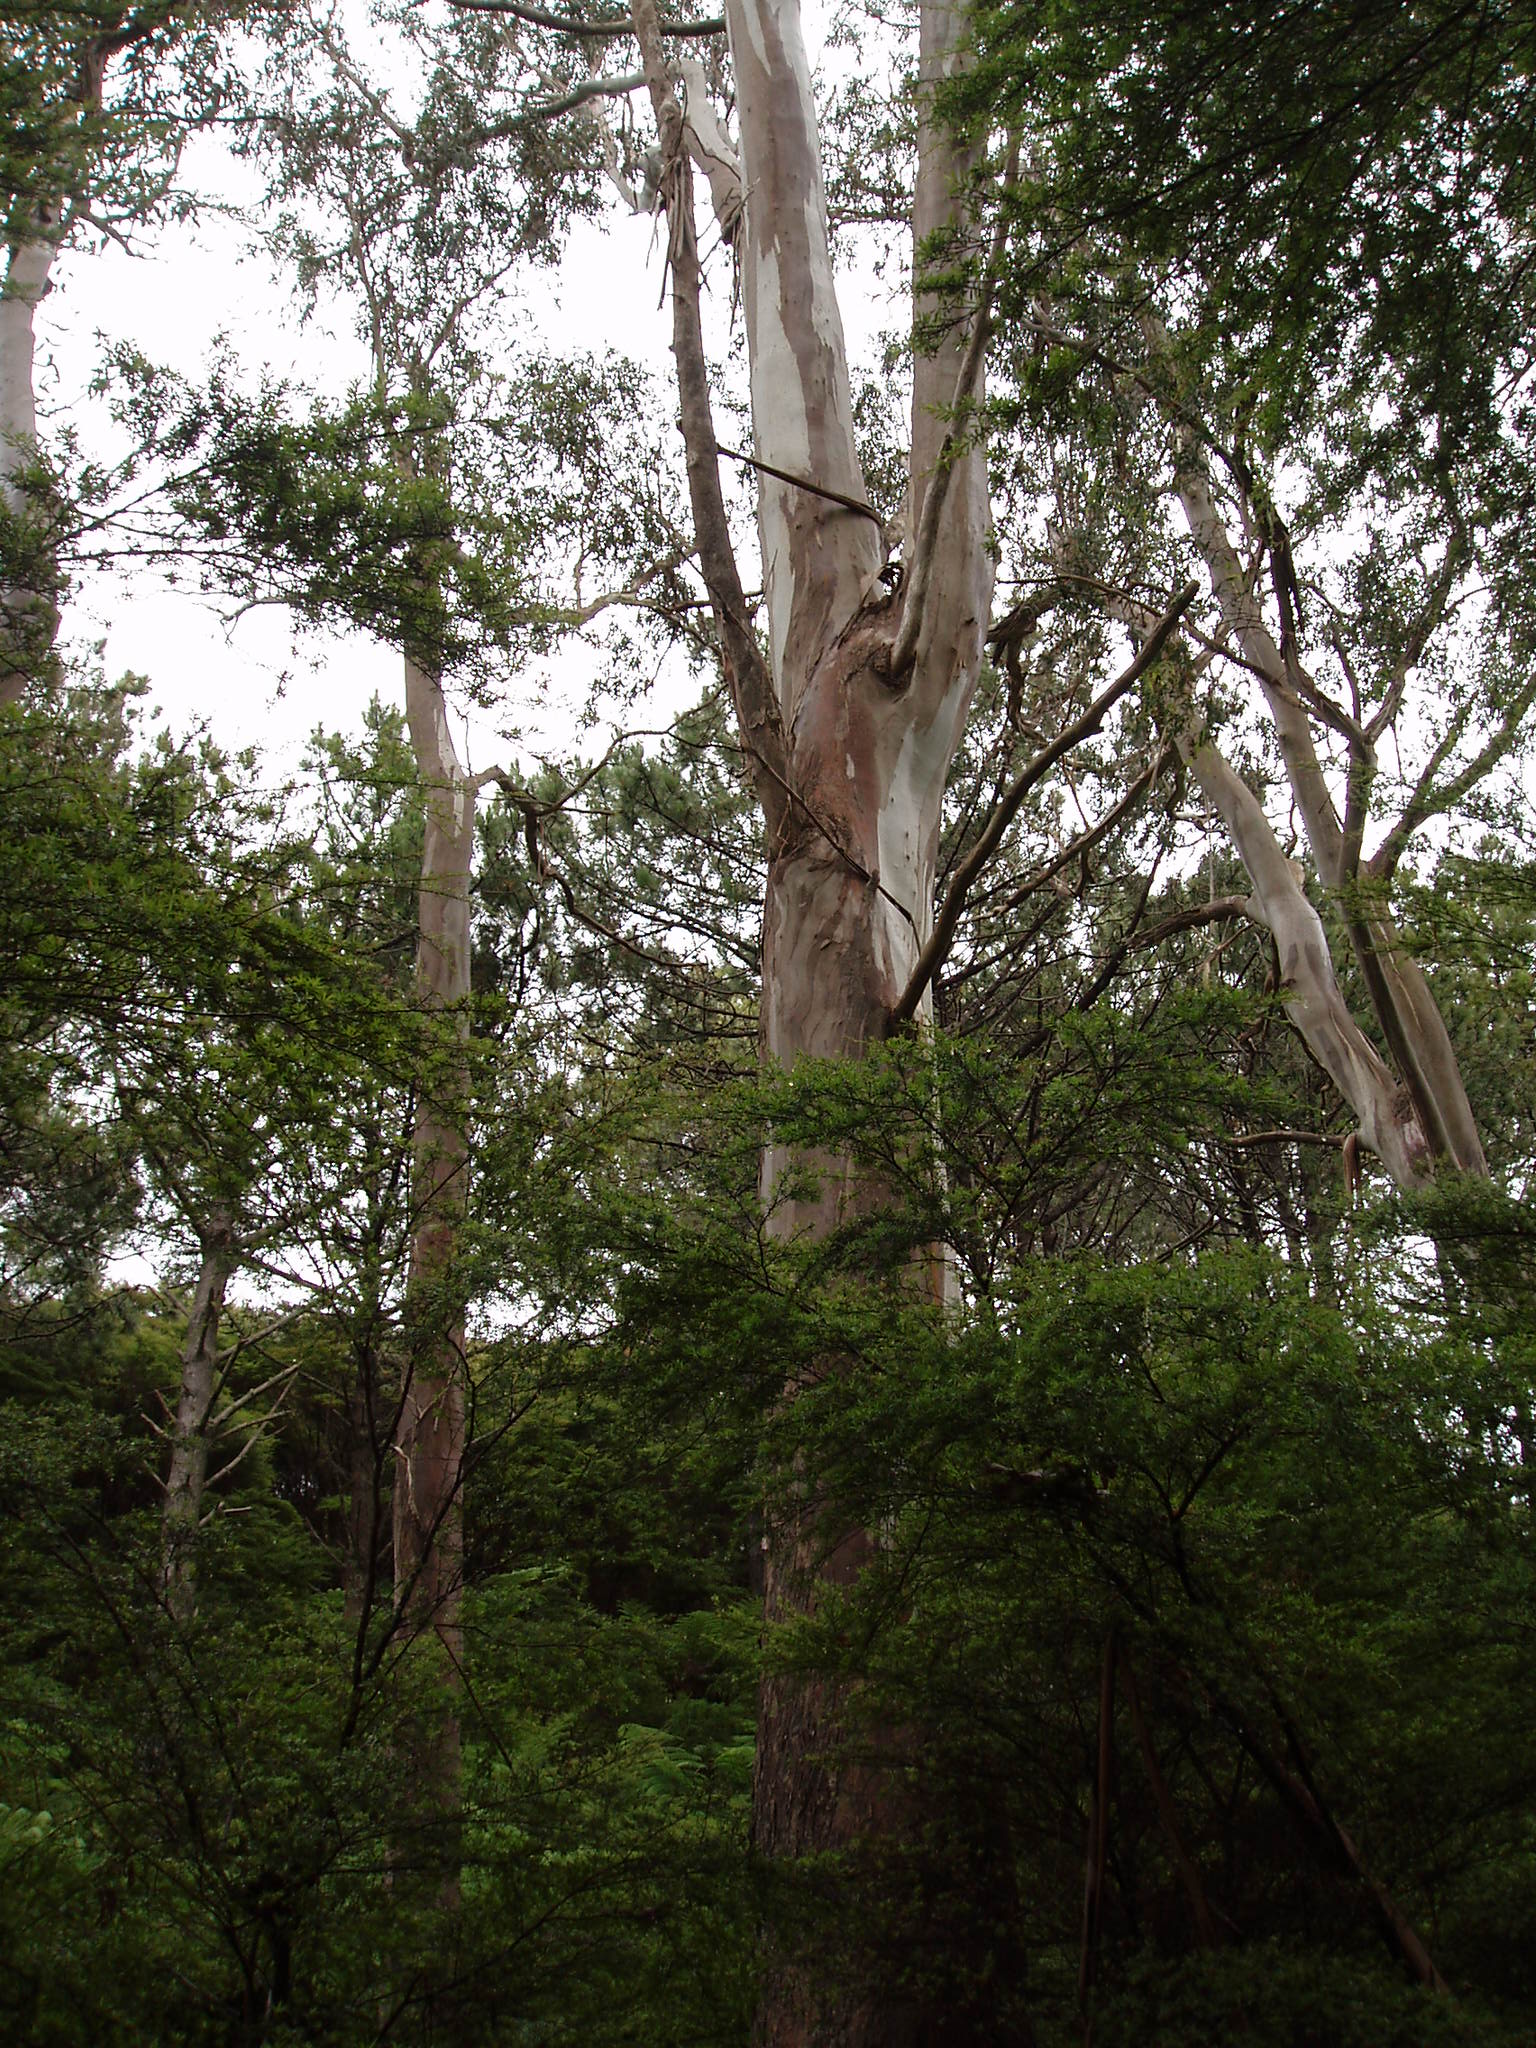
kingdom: Plantae
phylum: Tracheophyta
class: Magnoliopsida
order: Myrtales
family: Myrtaceae
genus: Eucalyptus
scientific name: Eucalyptus viminalis
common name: Manna gum
